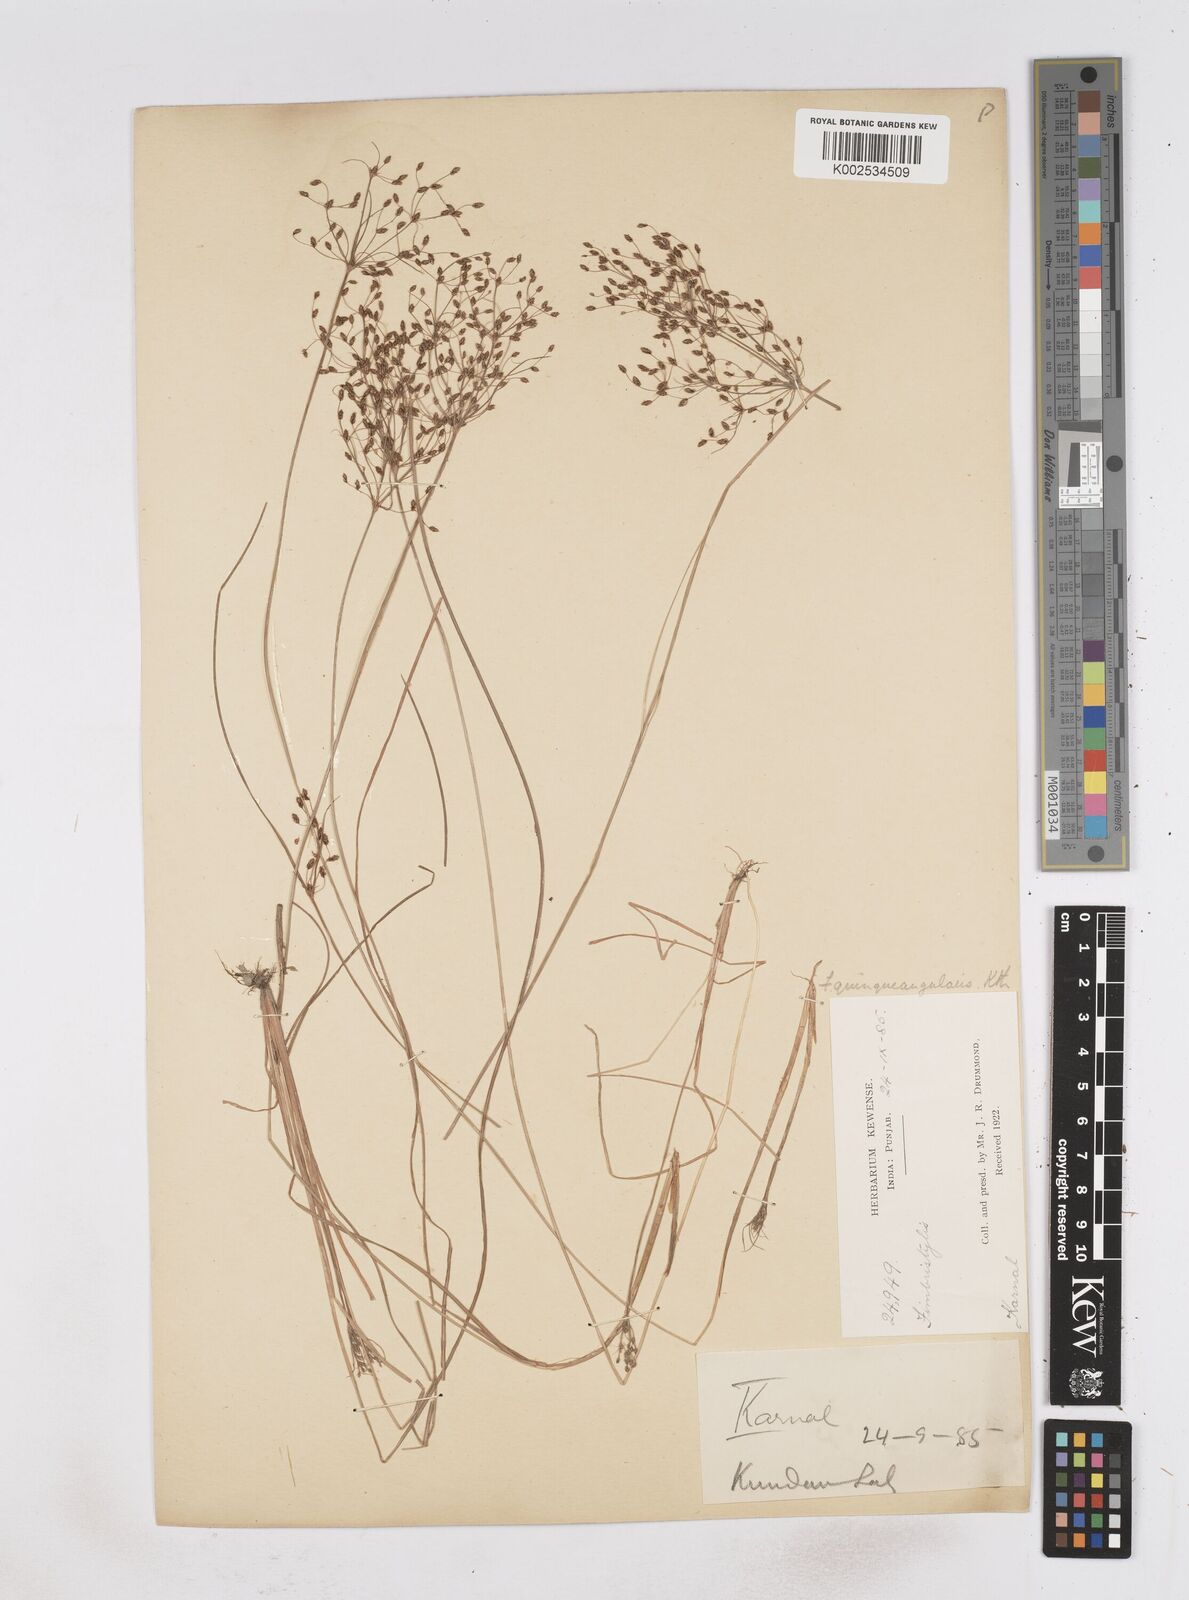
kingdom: Plantae
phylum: Tracheophyta
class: Liliopsida
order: Poales
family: Cyperaceae
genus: Fimbristylis
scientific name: Fimbristylis quinquangularis
